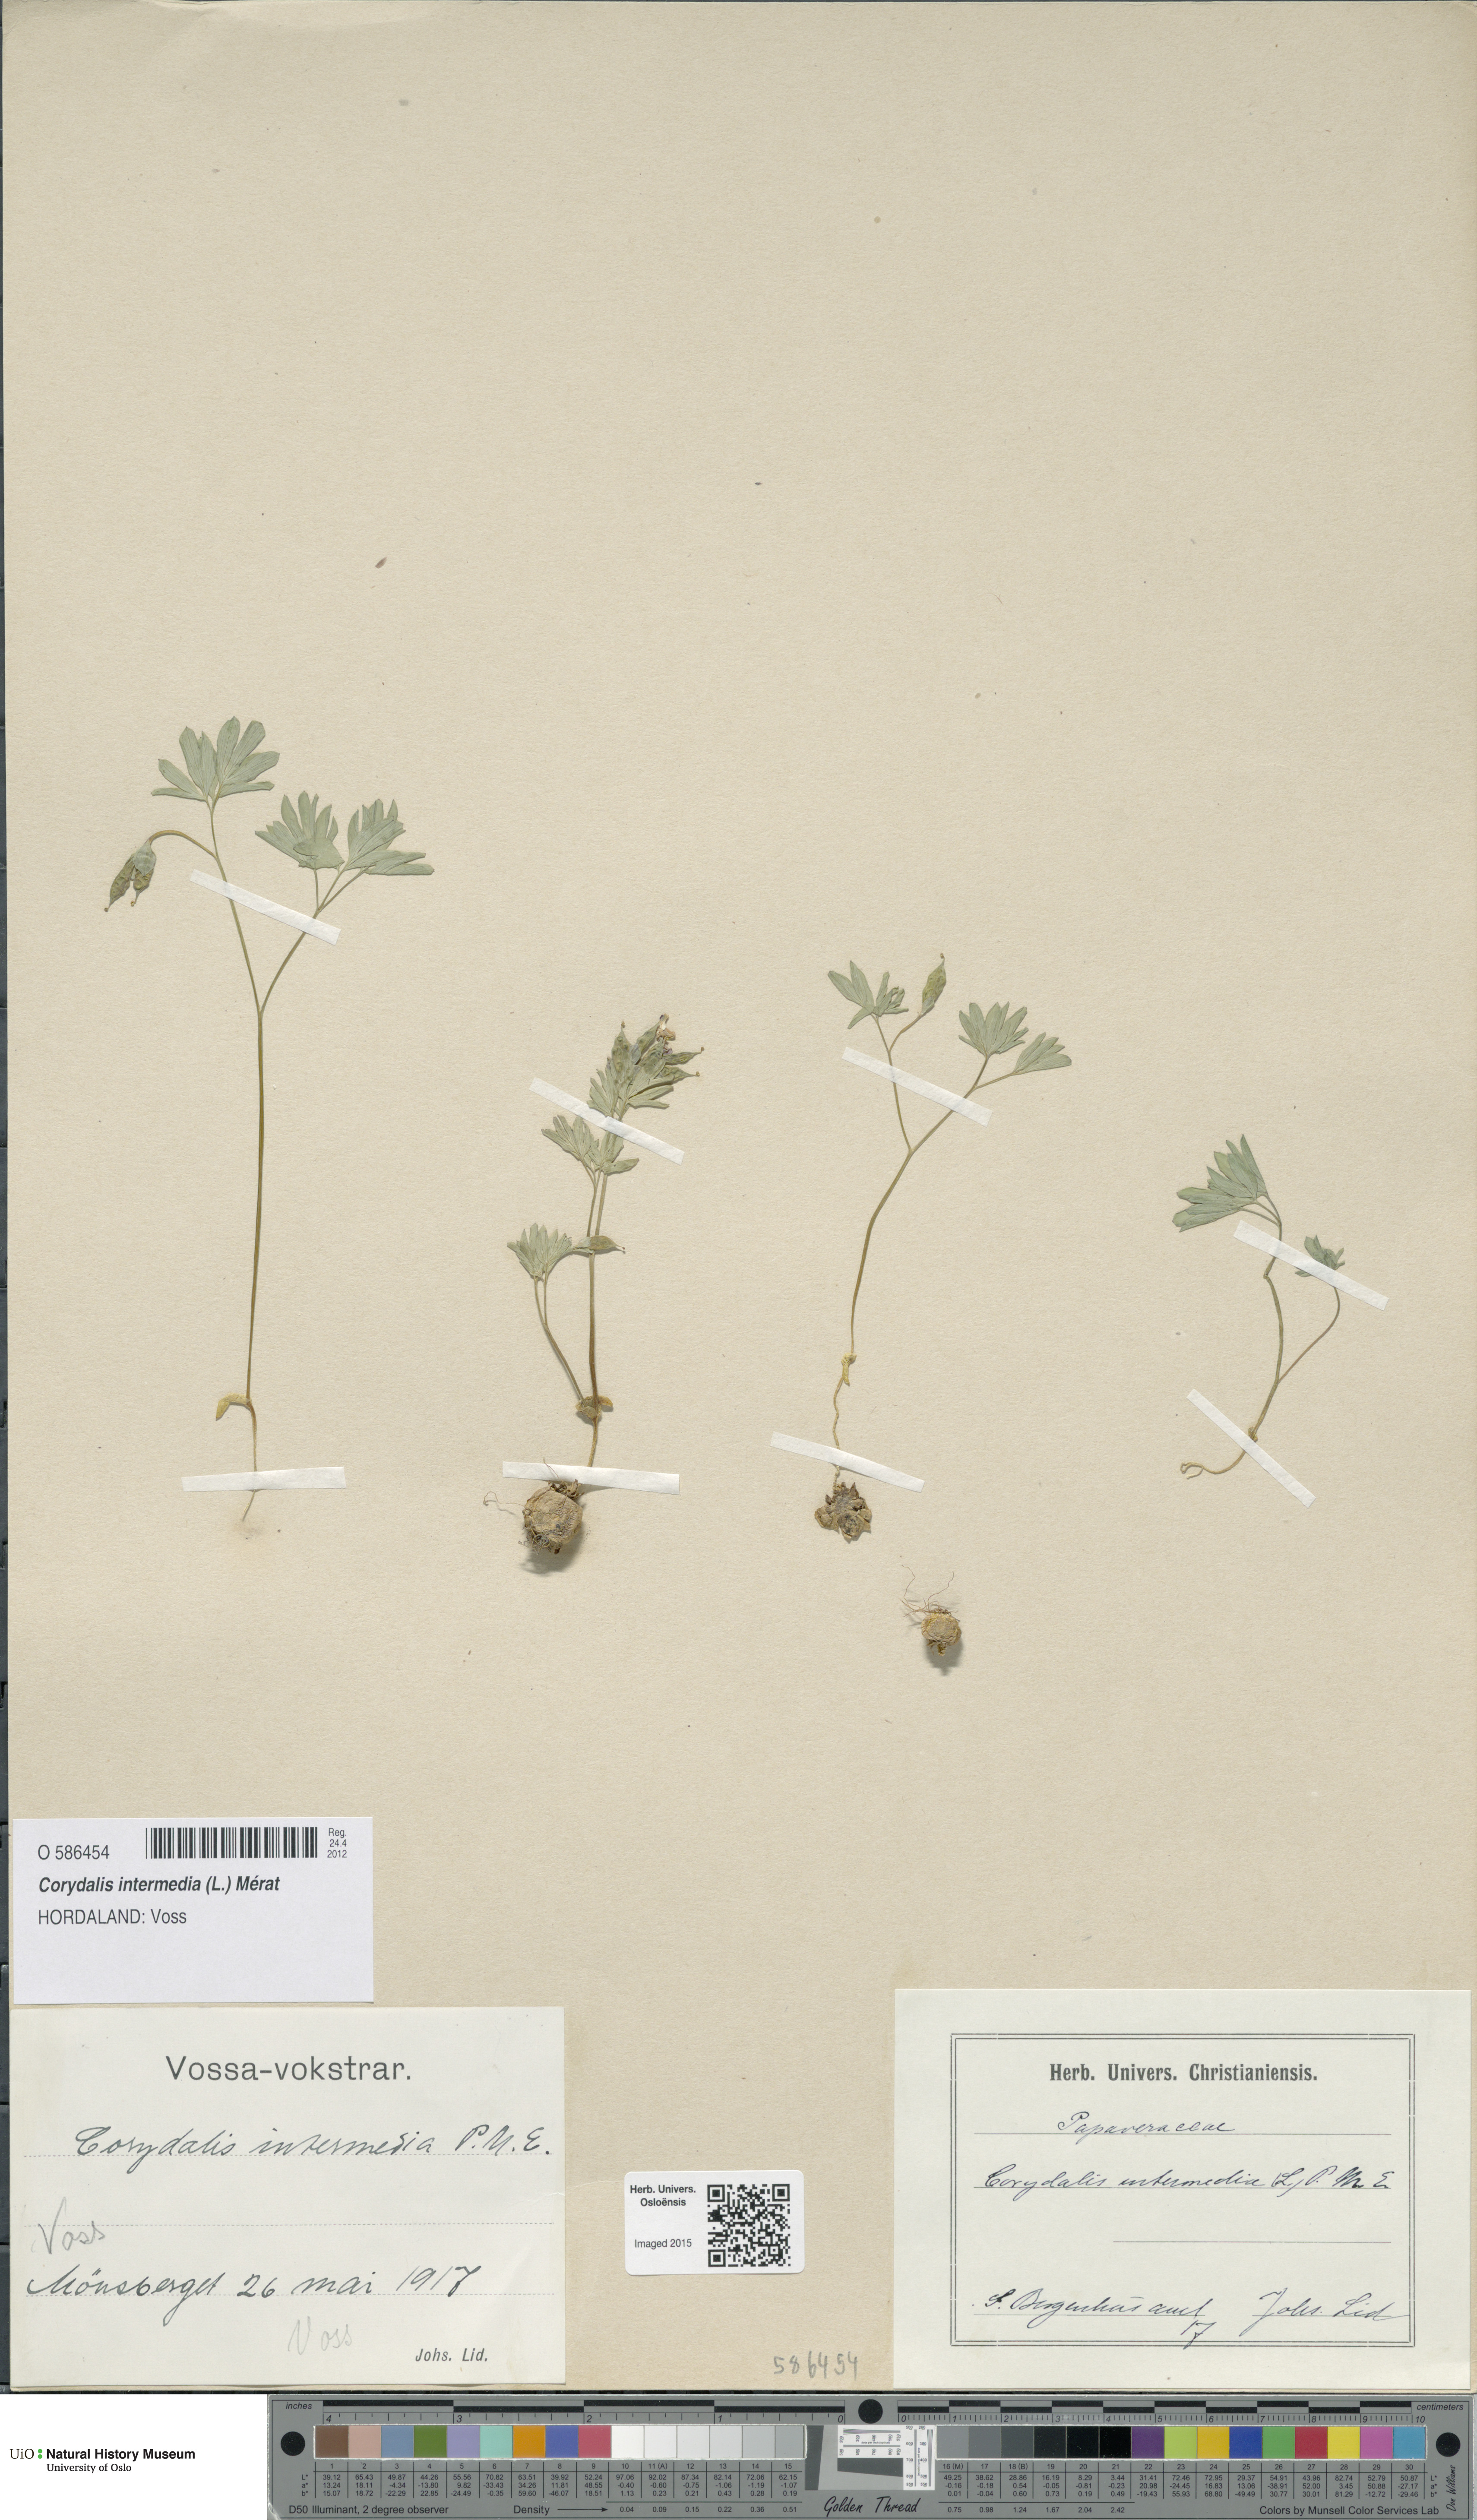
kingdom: Plantae
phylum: Tracheophyta
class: Magnoliopsida
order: Ranunculales
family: Papaveraceae
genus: Corydalis
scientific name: Corydalis intermedia
